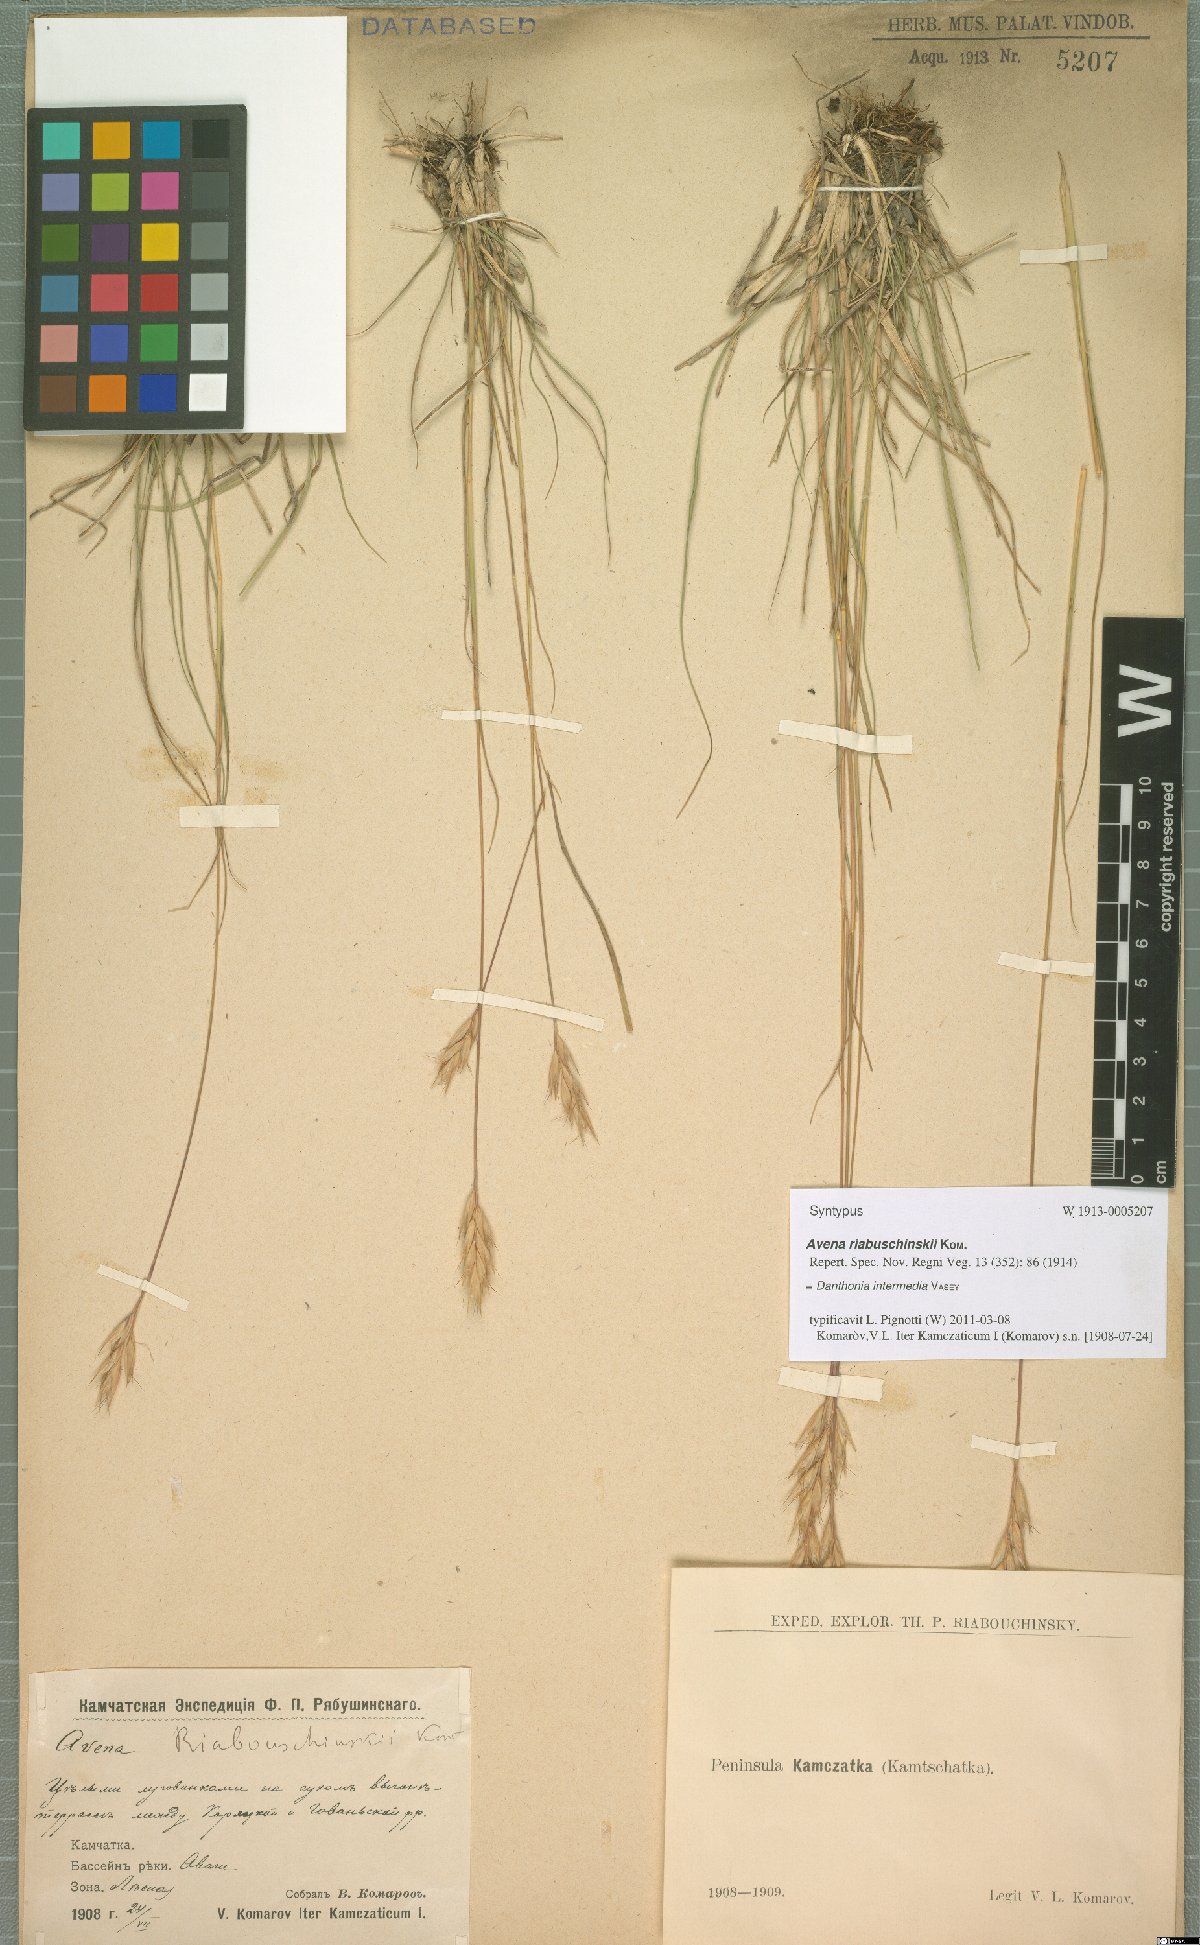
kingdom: Plantae
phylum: Tracheophyta
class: Liliopsida
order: Poales
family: Poaceae
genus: Danthonia
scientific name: Danthonia intermedia
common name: Intermediate oat grass
